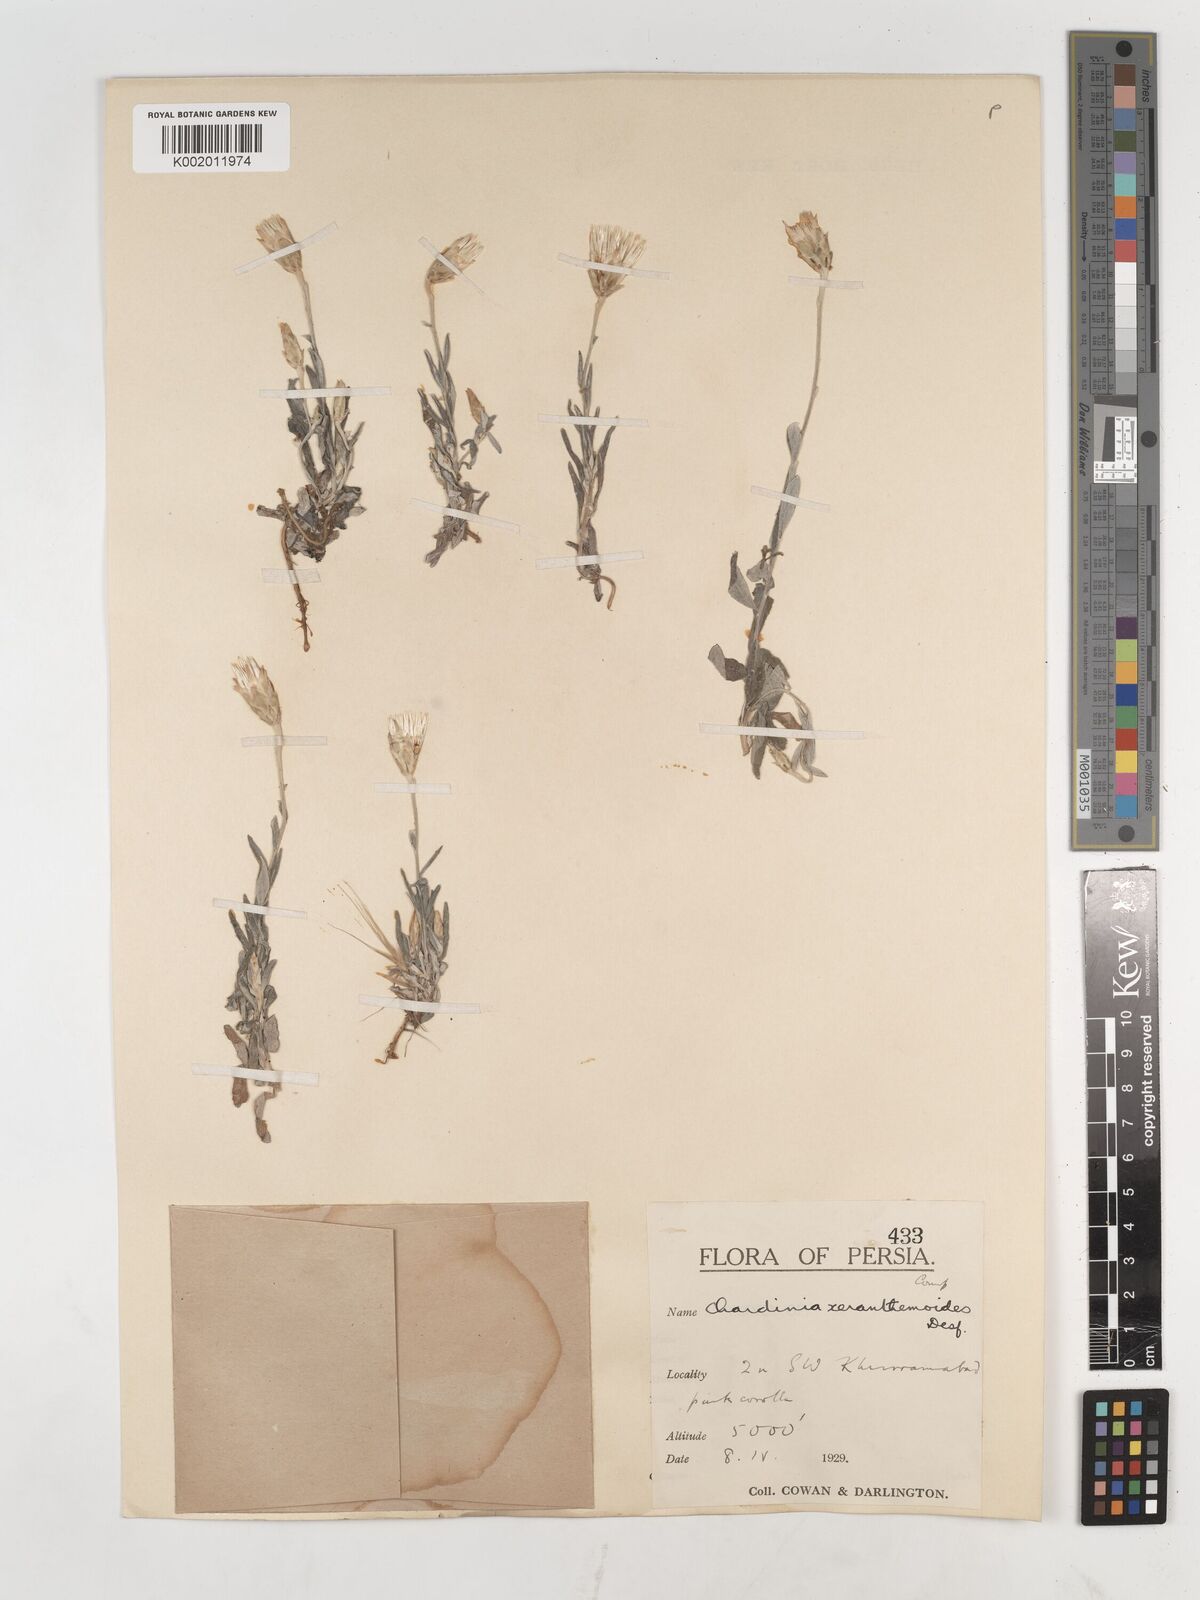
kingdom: Plantae
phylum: Tracheophyta
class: Magnoliopsida
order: Asterales
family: Asteraceae
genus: Chardinia
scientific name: Chardinia orientalis
